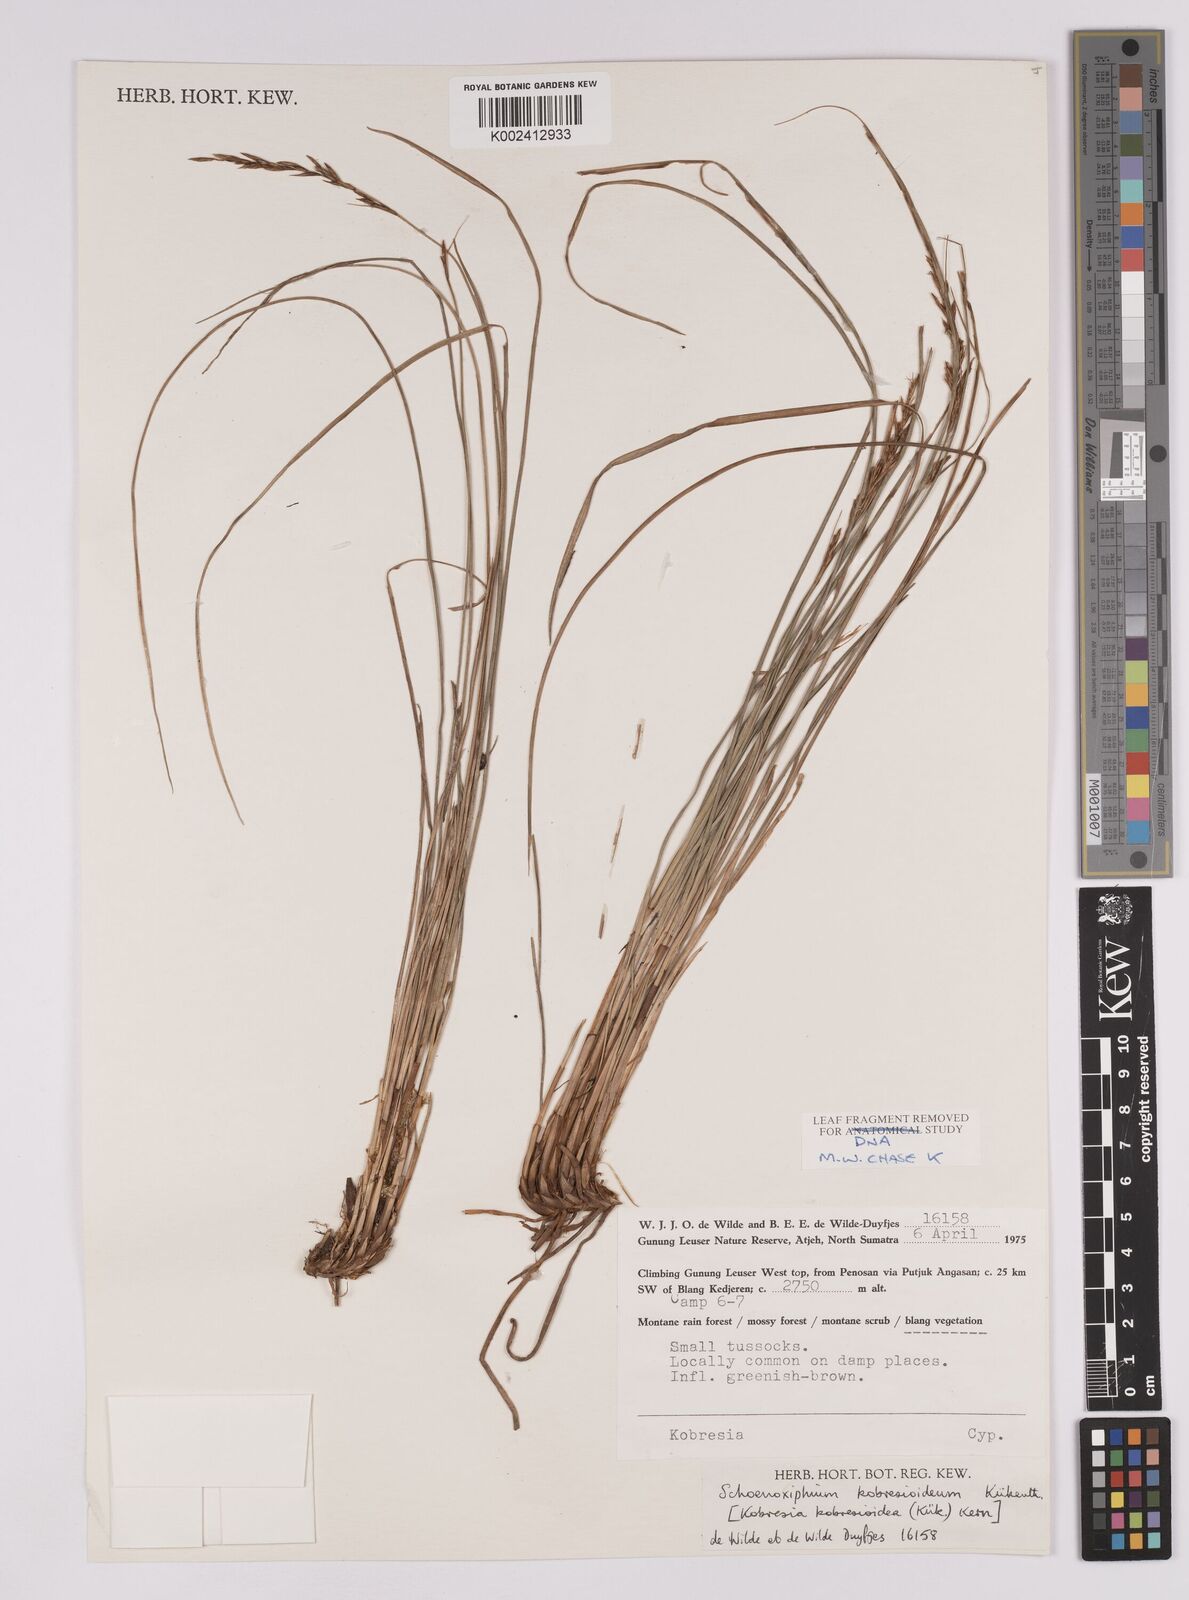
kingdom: Plantae
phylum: Tracheophyta
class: Liliopsida
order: Poales
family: Cyperaceae
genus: Carex
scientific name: Carex kobresioidea
